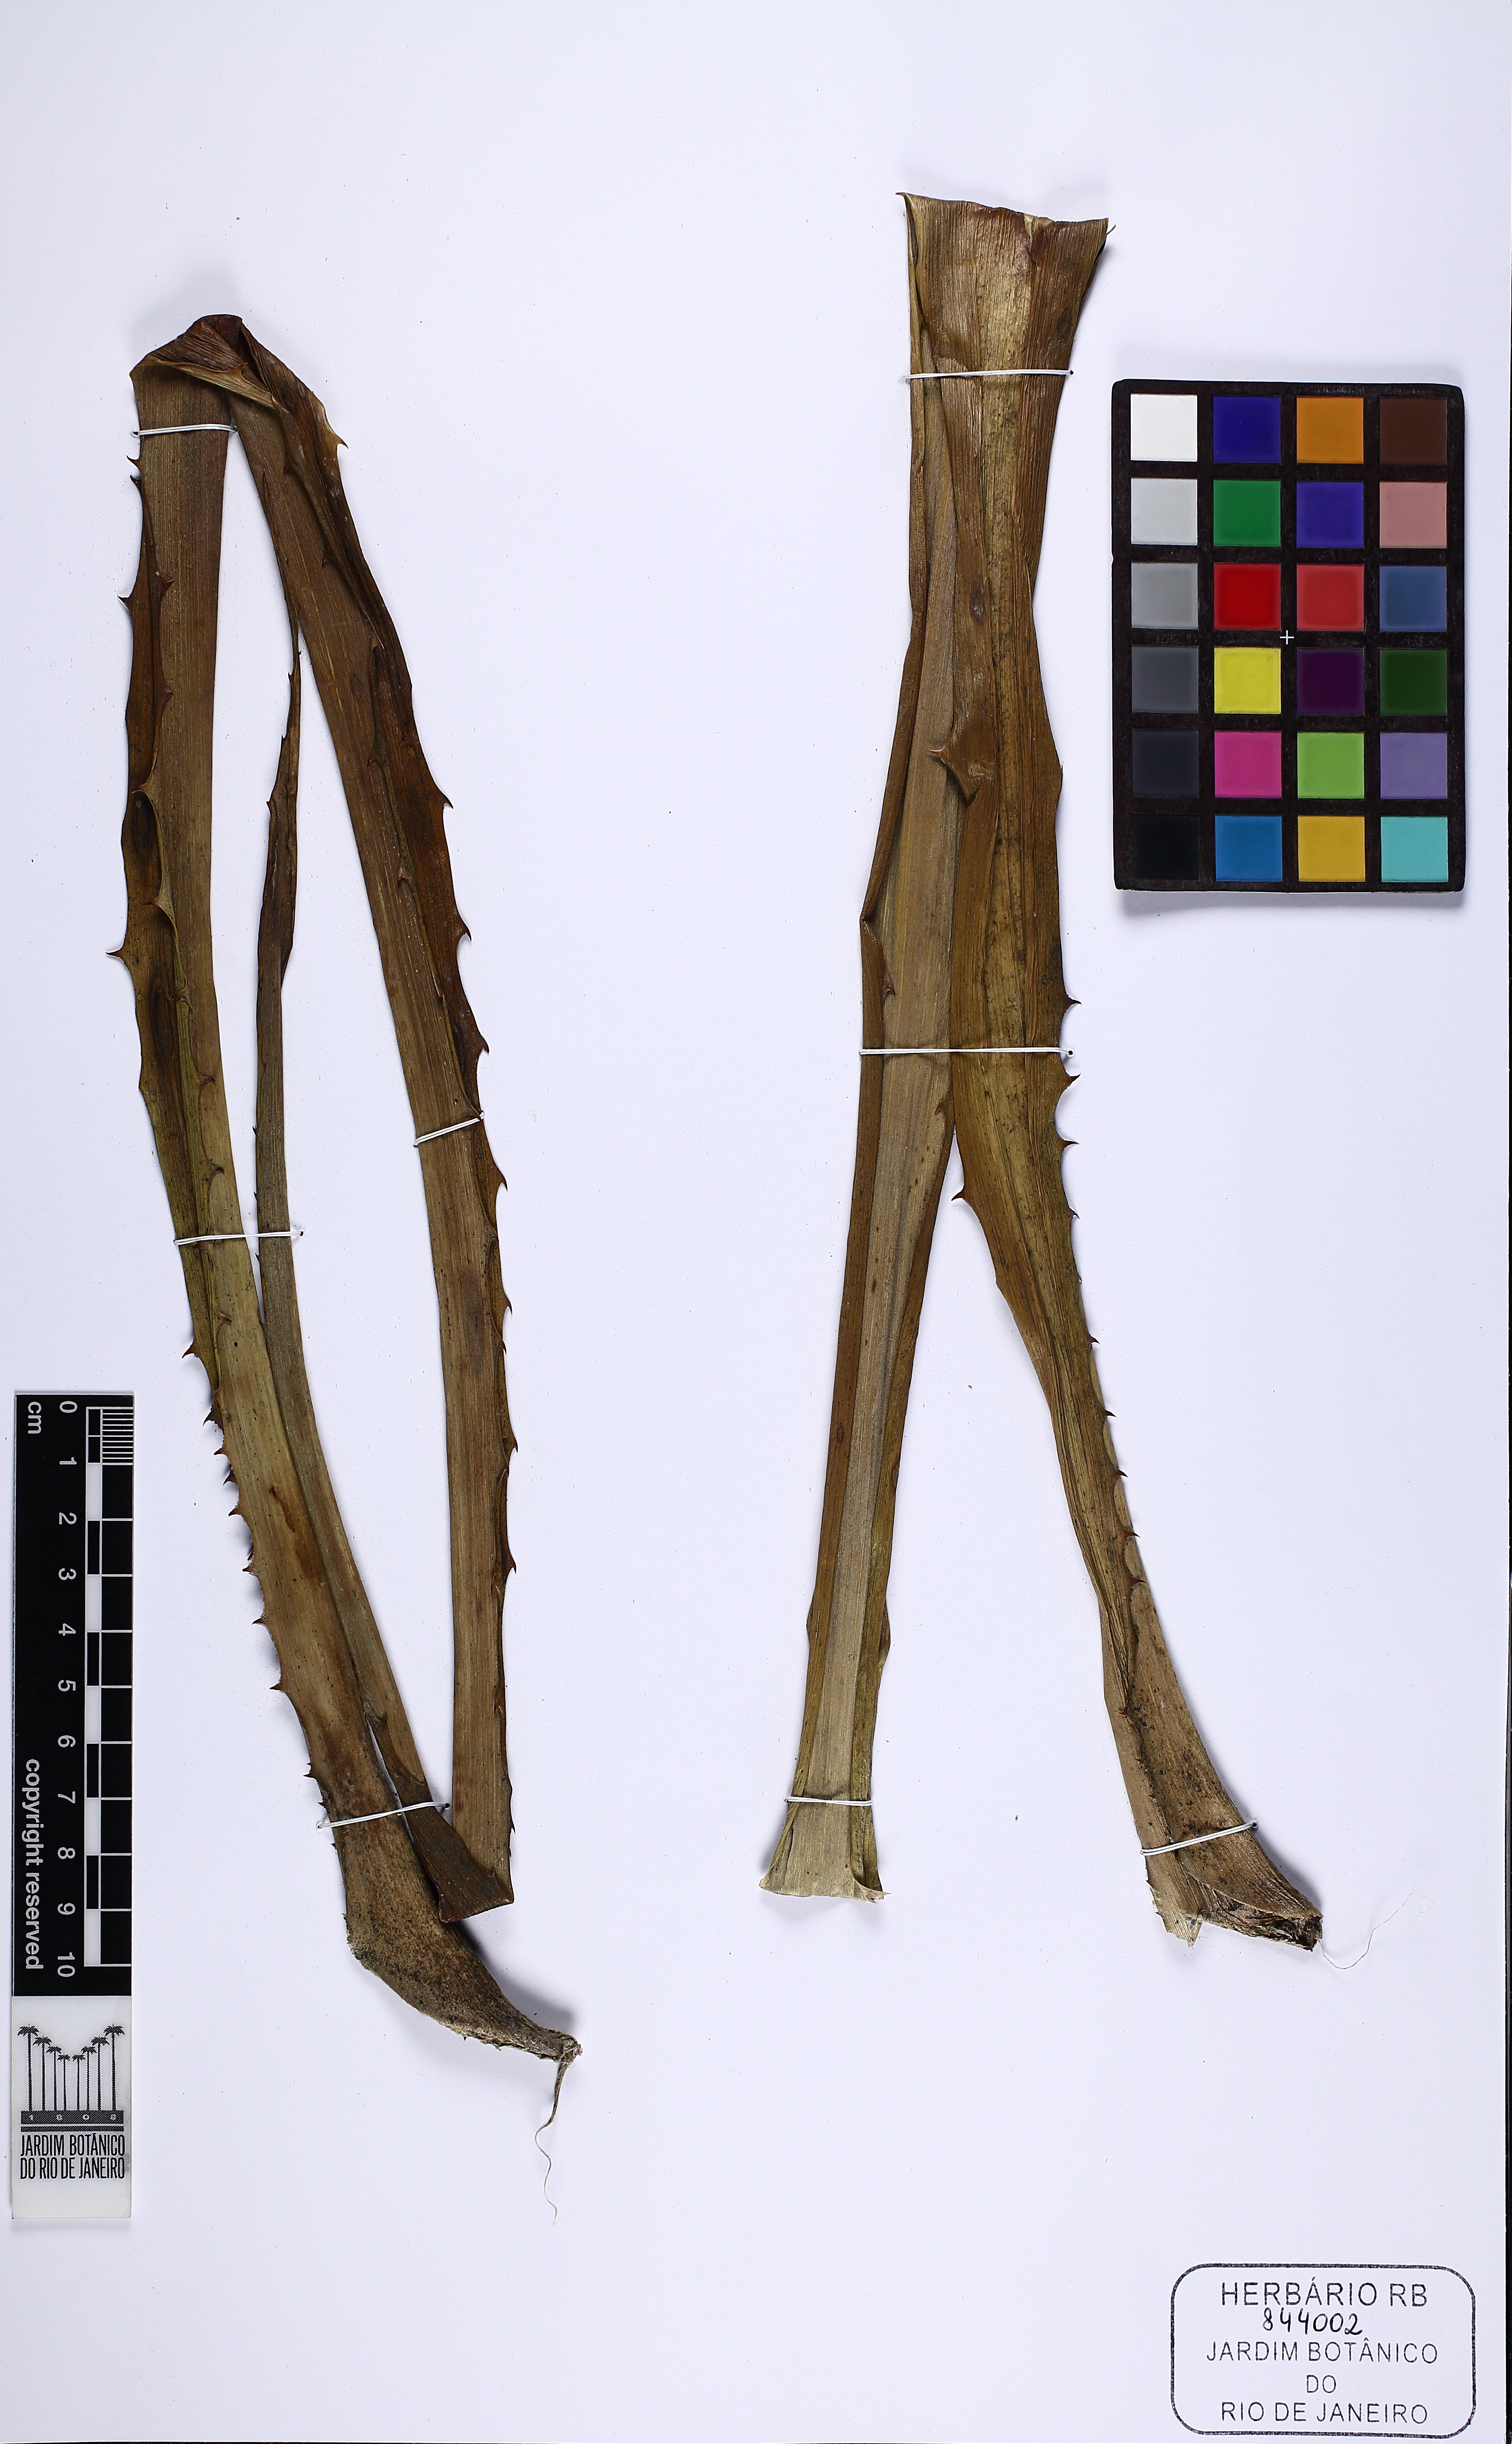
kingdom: Plantae
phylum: Tracheophyta
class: Liliopsida
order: Poales
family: Bromeliaceae
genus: Ananas
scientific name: Ananas comosus
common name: Pineapple
